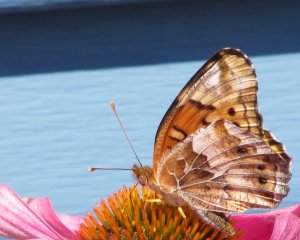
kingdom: Animalia
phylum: Arthropoda
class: Insecta
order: Lepidoptera
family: Nymphalidae
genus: Euptoieta
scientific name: Euptoieta claudia
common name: Variegated Fritillary
